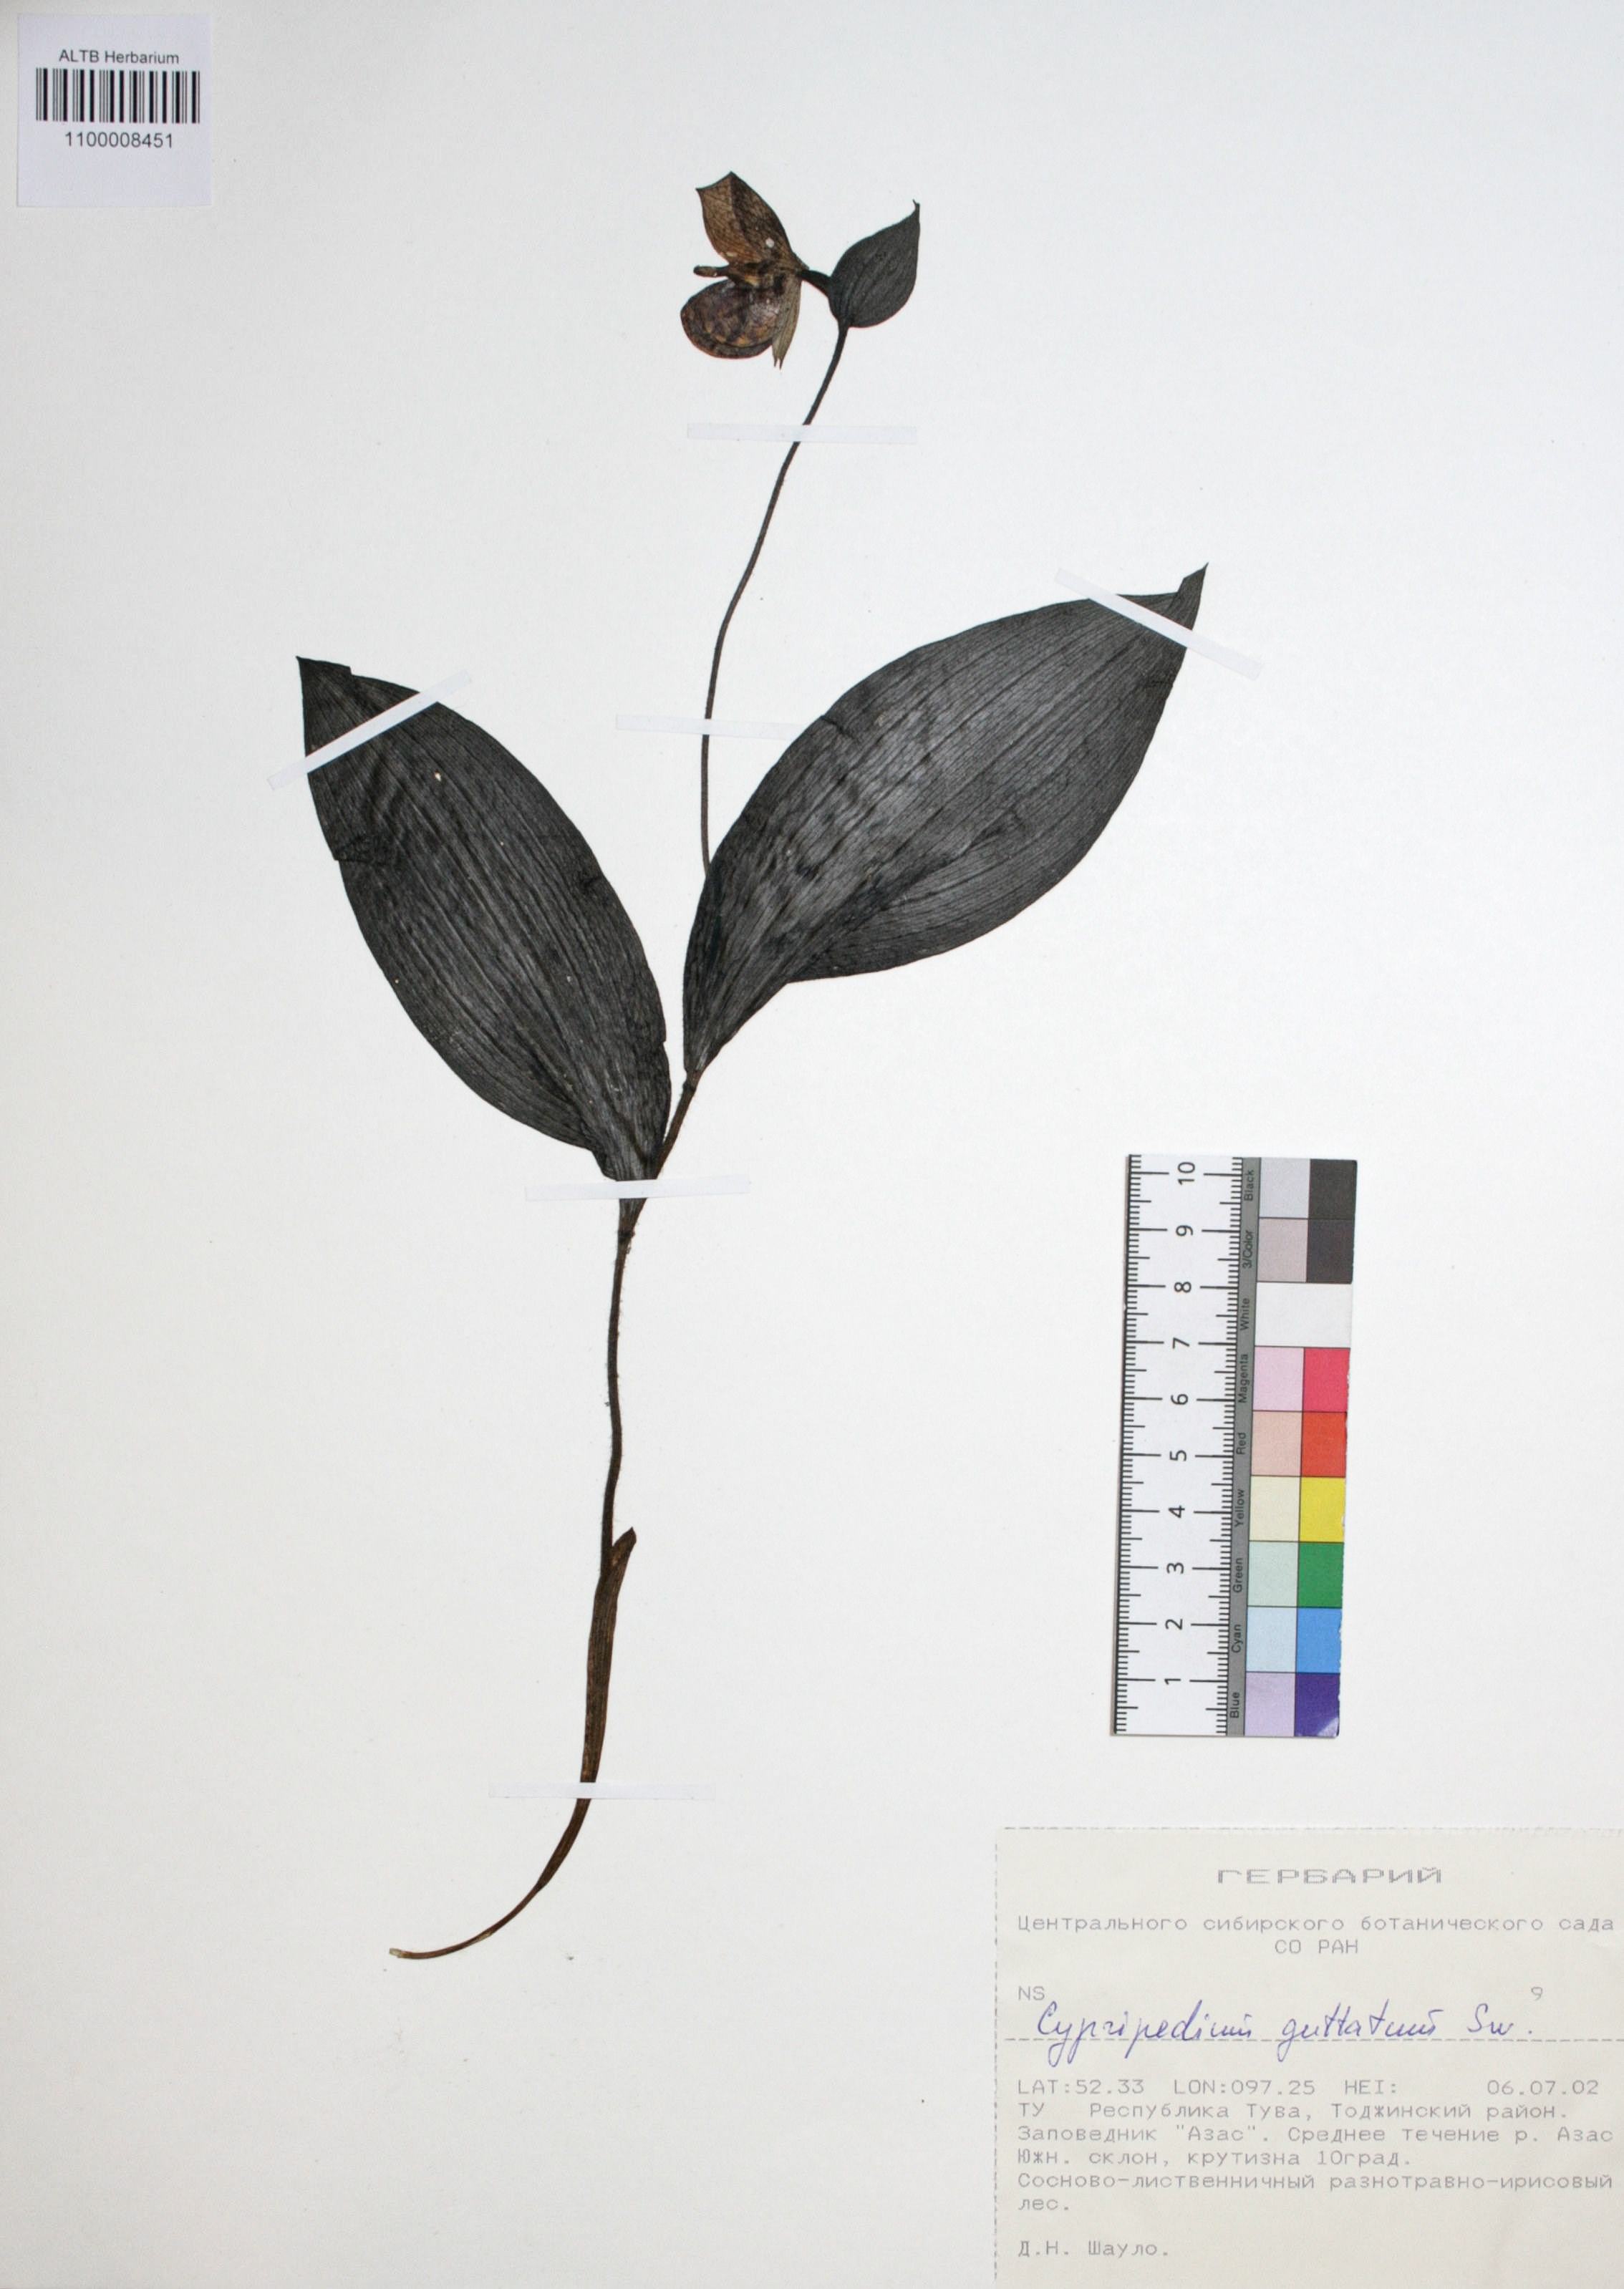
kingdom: Plantae
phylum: Tracheophyta
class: Liliopsida
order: Asparagales
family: Orchidaceae
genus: Cypripedium
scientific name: Cypripedium guttatum
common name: Pink lady slipper
